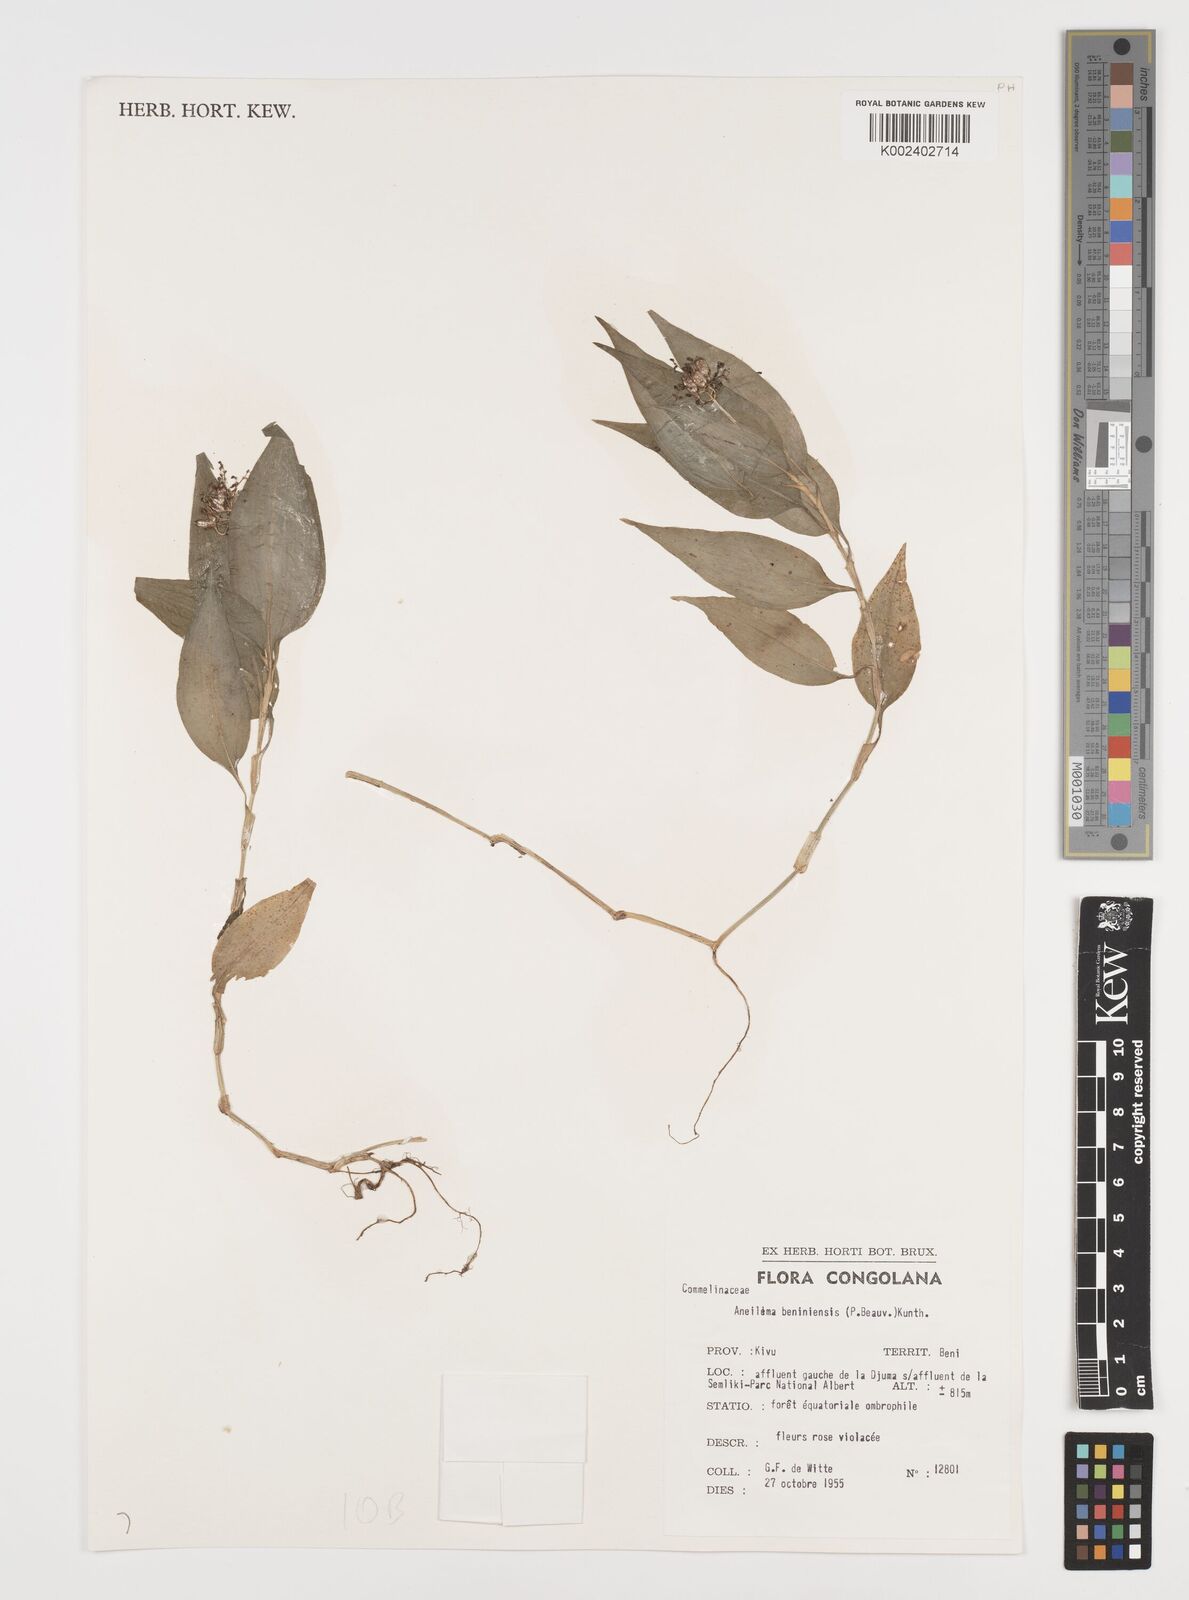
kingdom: Plantae
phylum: Tracheophyta
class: Liliopsida
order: Commelinales
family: Commelinaceae
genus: Aneilema
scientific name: Aneilema beniniense
